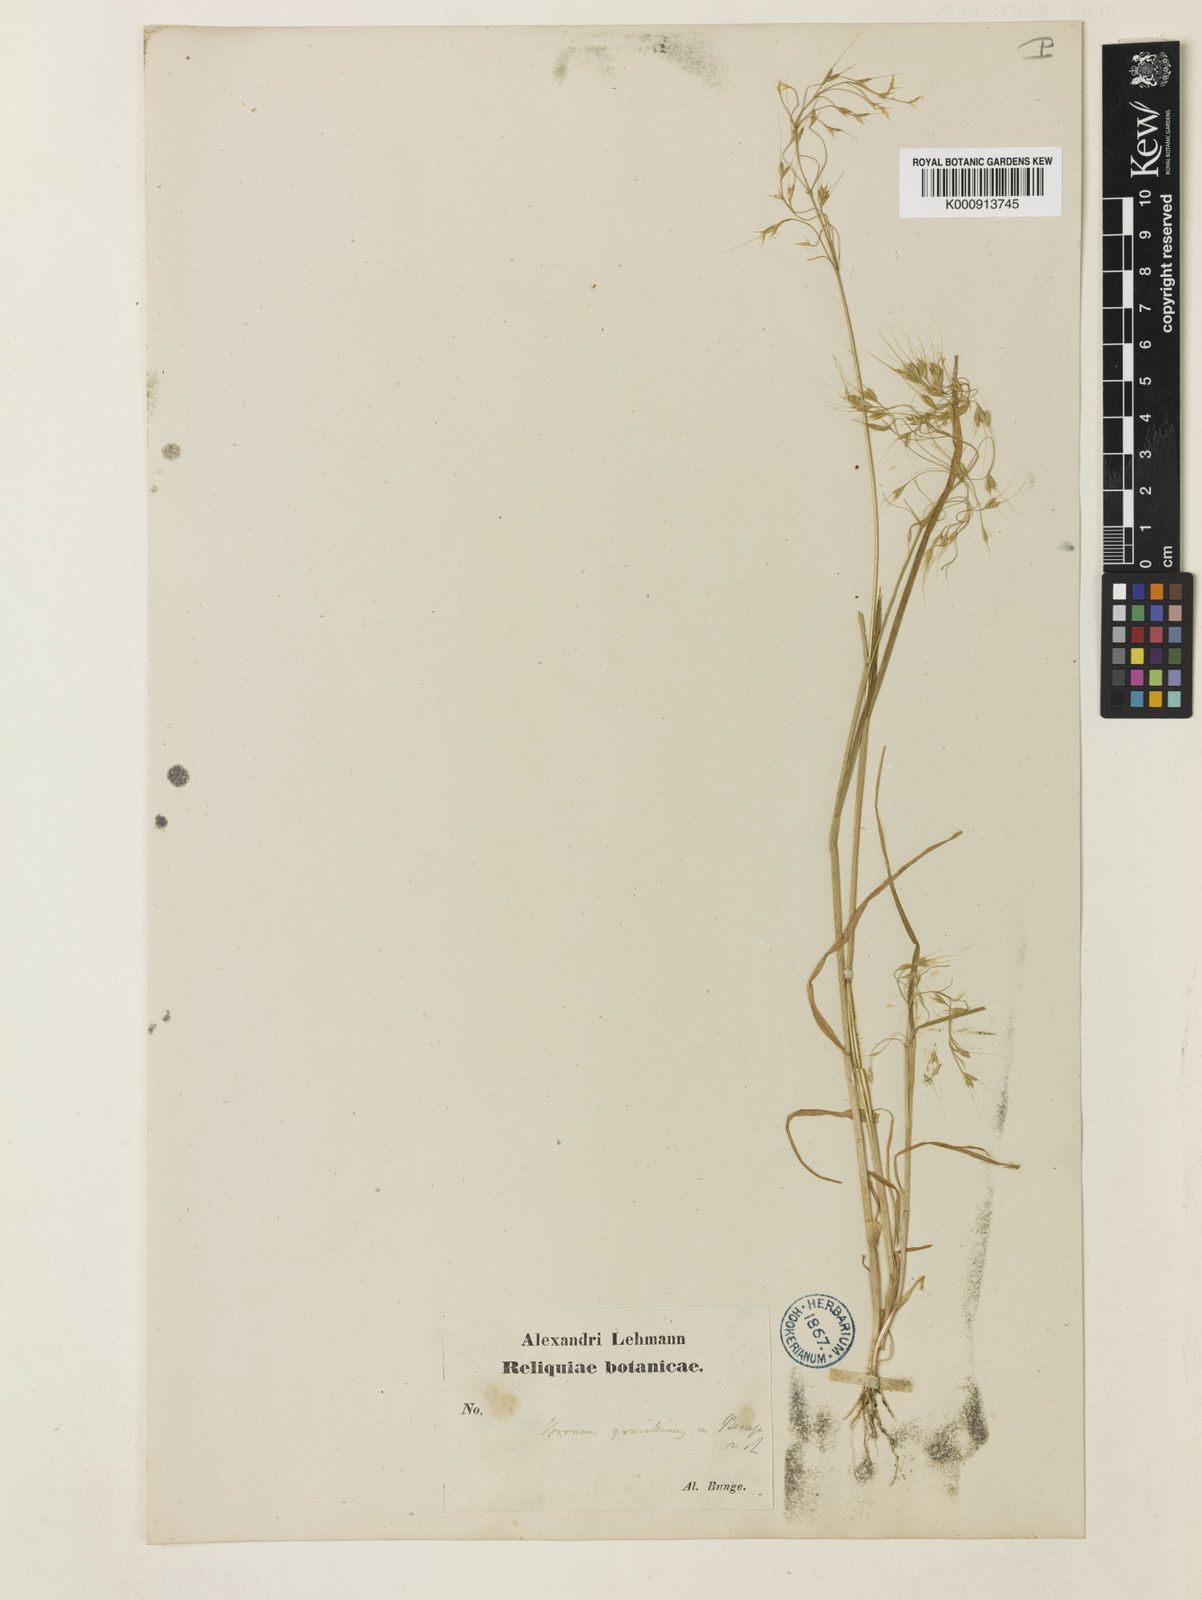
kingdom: Plantae
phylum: Tracheophyta
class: Liliopsida
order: Poales
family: Poaceae
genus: Bromus
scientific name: Bromus gracillimus
